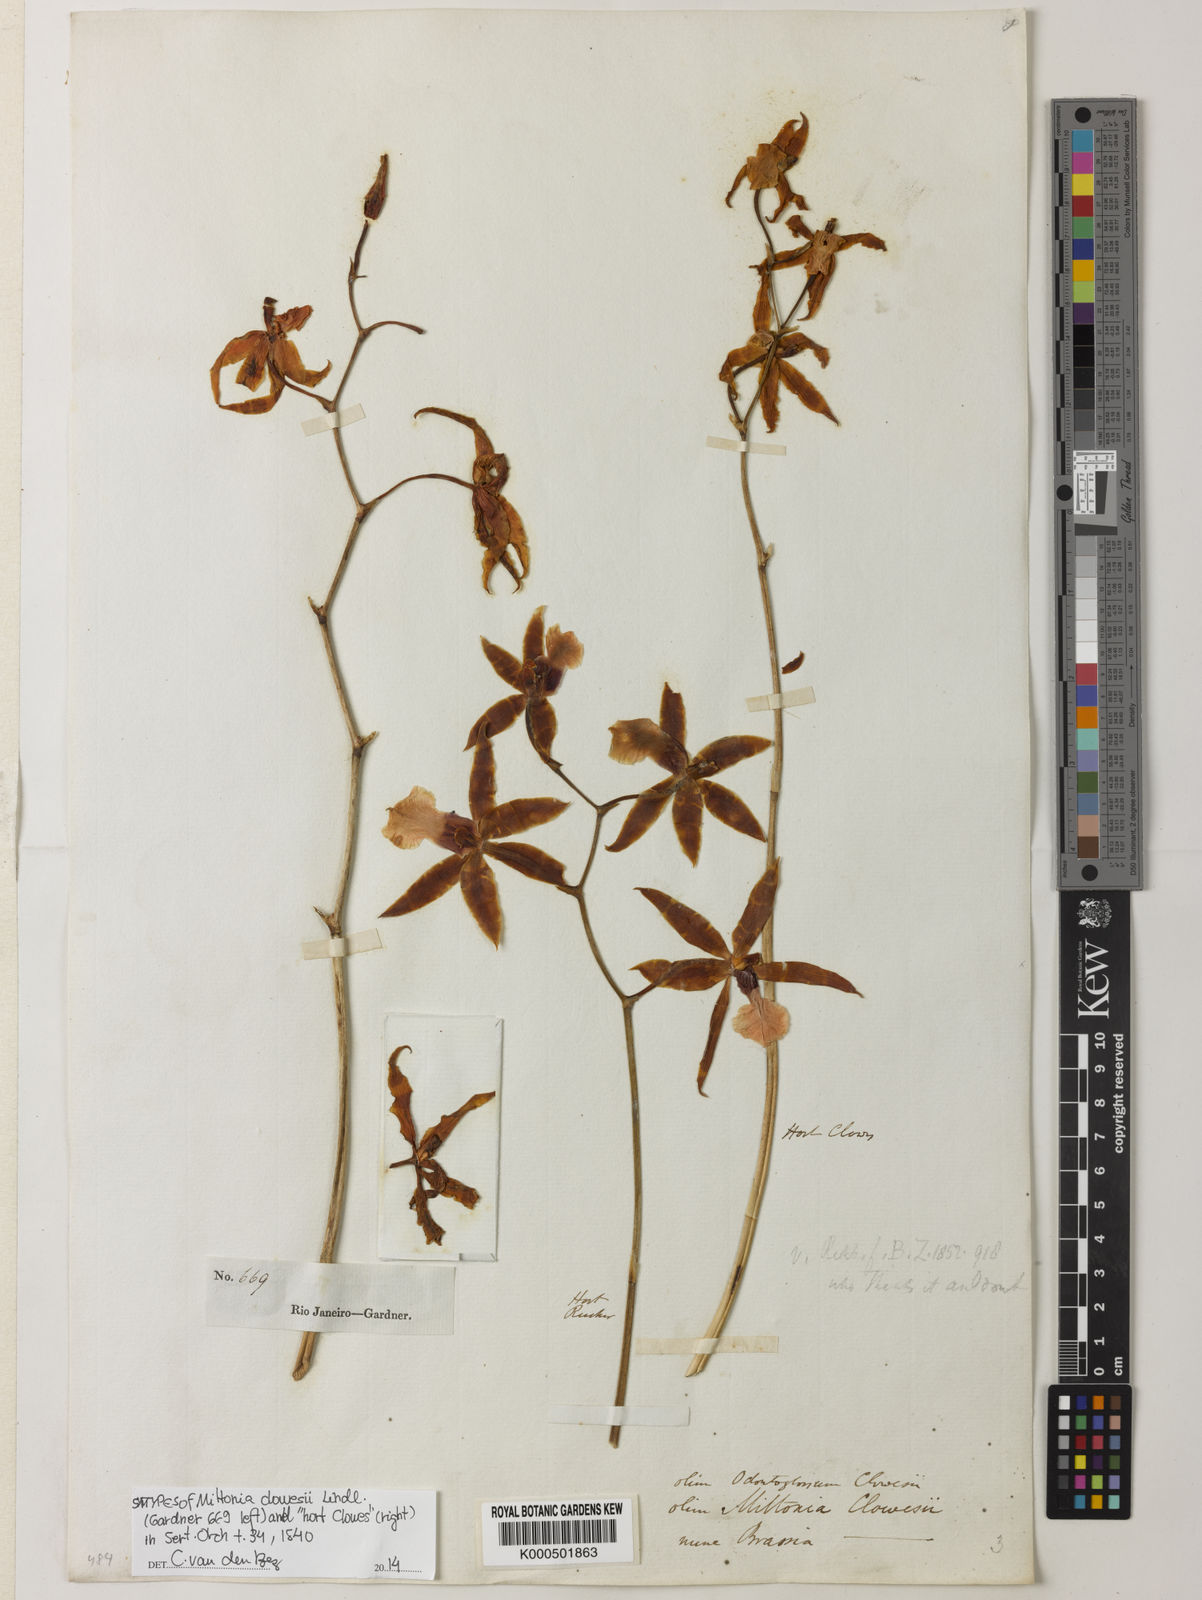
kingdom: Plantae
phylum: Tracheophyta
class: Liliopsida
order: Asparagales
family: Orchidaceae
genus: Miltonia
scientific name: Miltonia clowesii
